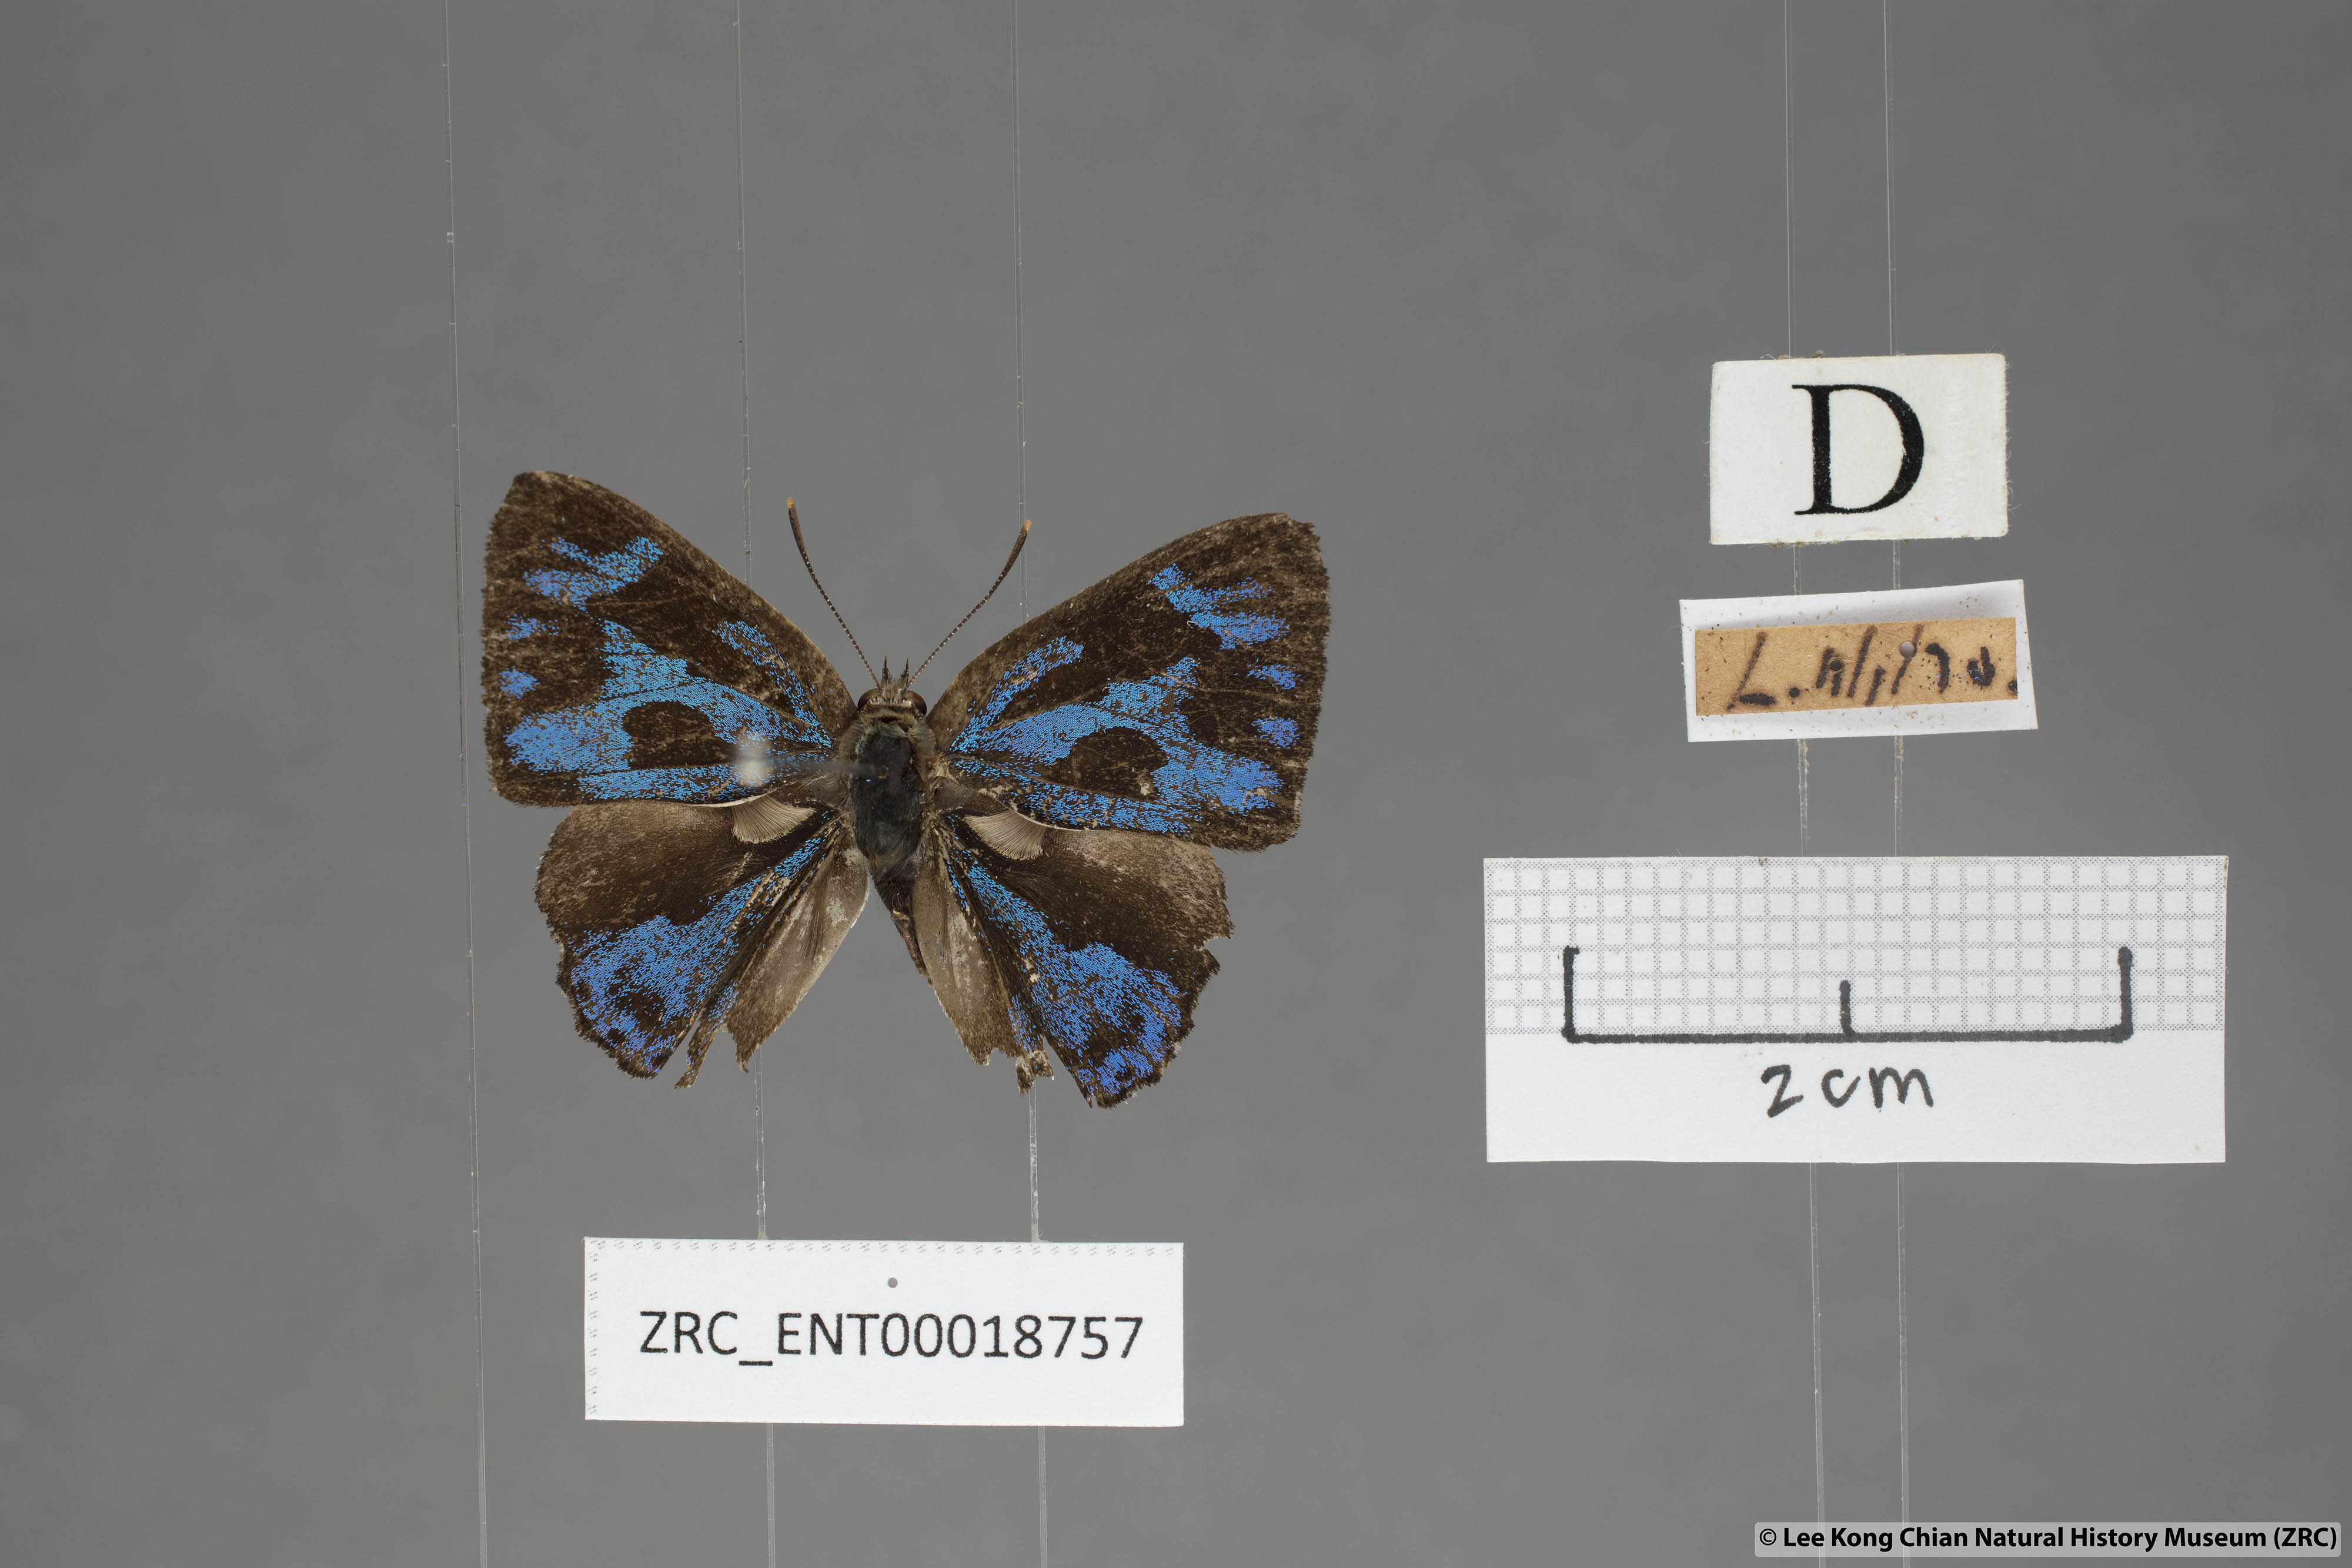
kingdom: Animalia
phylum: Arthropoda
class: Insecta
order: Lepidoptera
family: Lycaenidae
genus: Poritia
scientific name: Poritia erycinoides
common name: Blue gem
